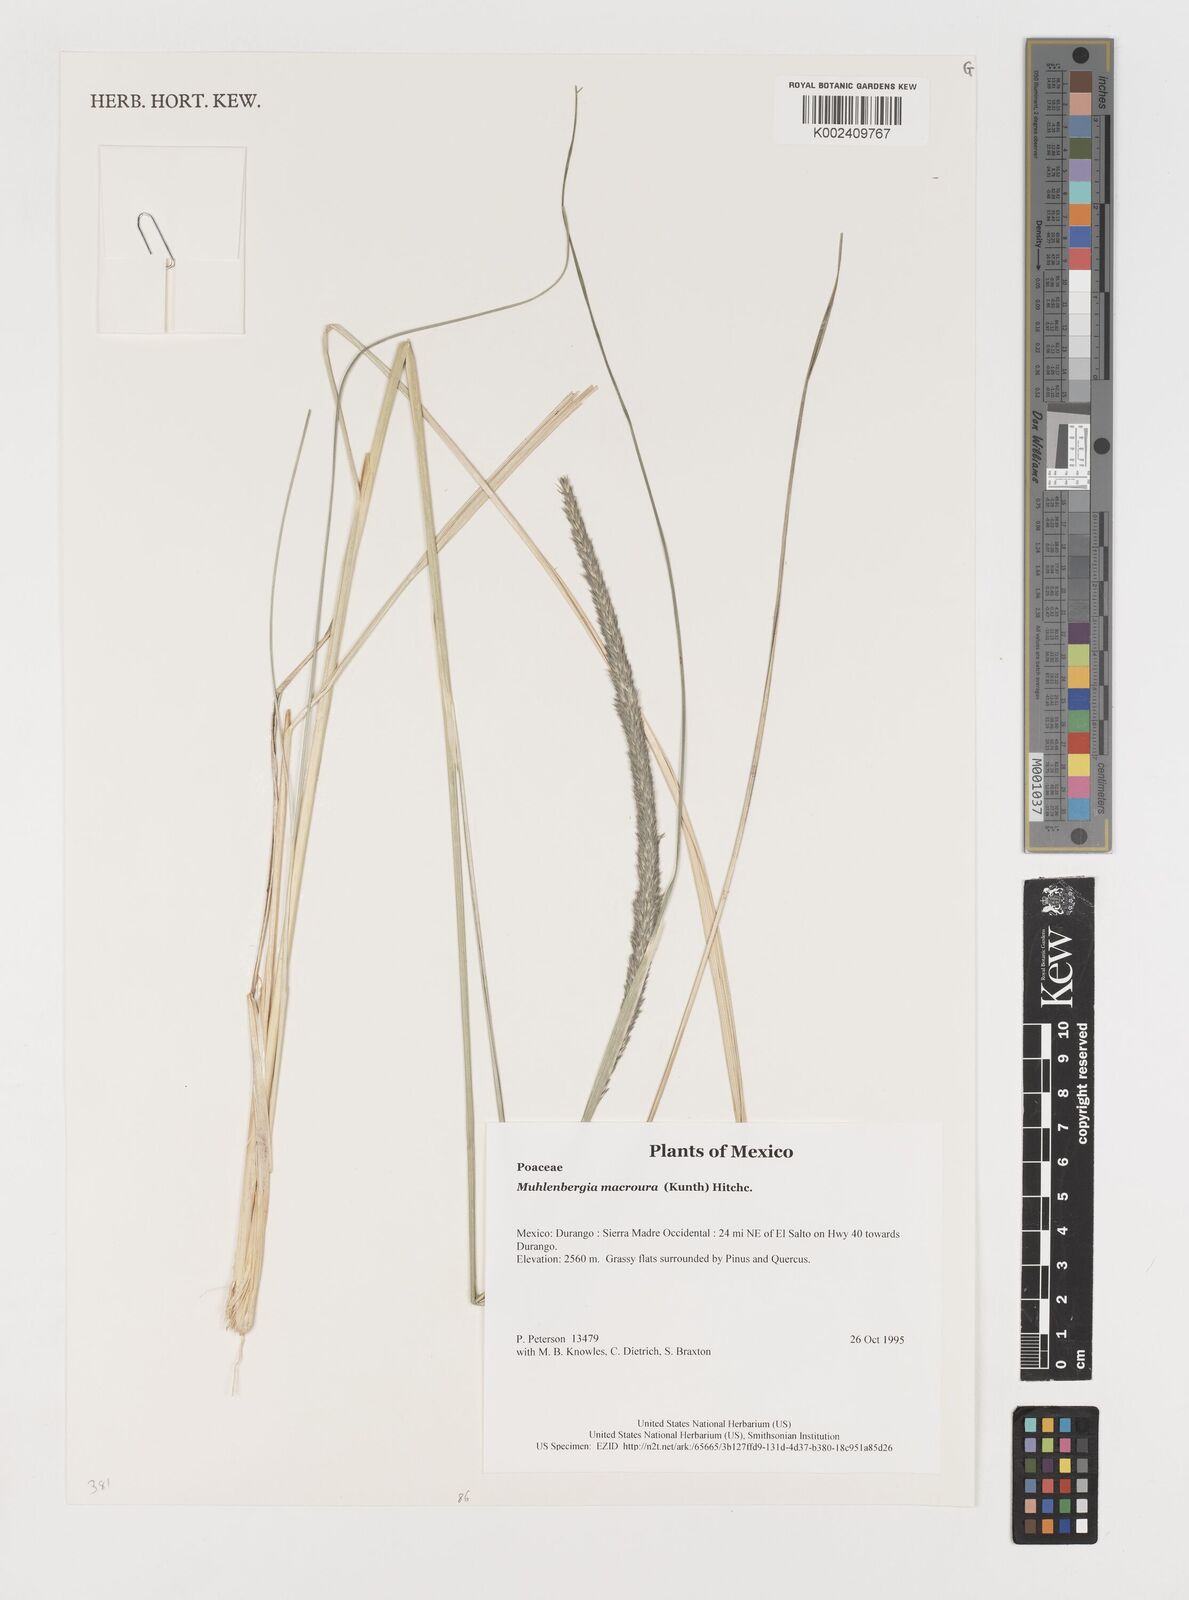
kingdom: Plantae
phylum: Tracheophyta
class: Liliopsida
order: Poales
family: Poaceae
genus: Muhlenbergia
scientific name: Muhlenbergia macroura
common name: Mexican broomroot
